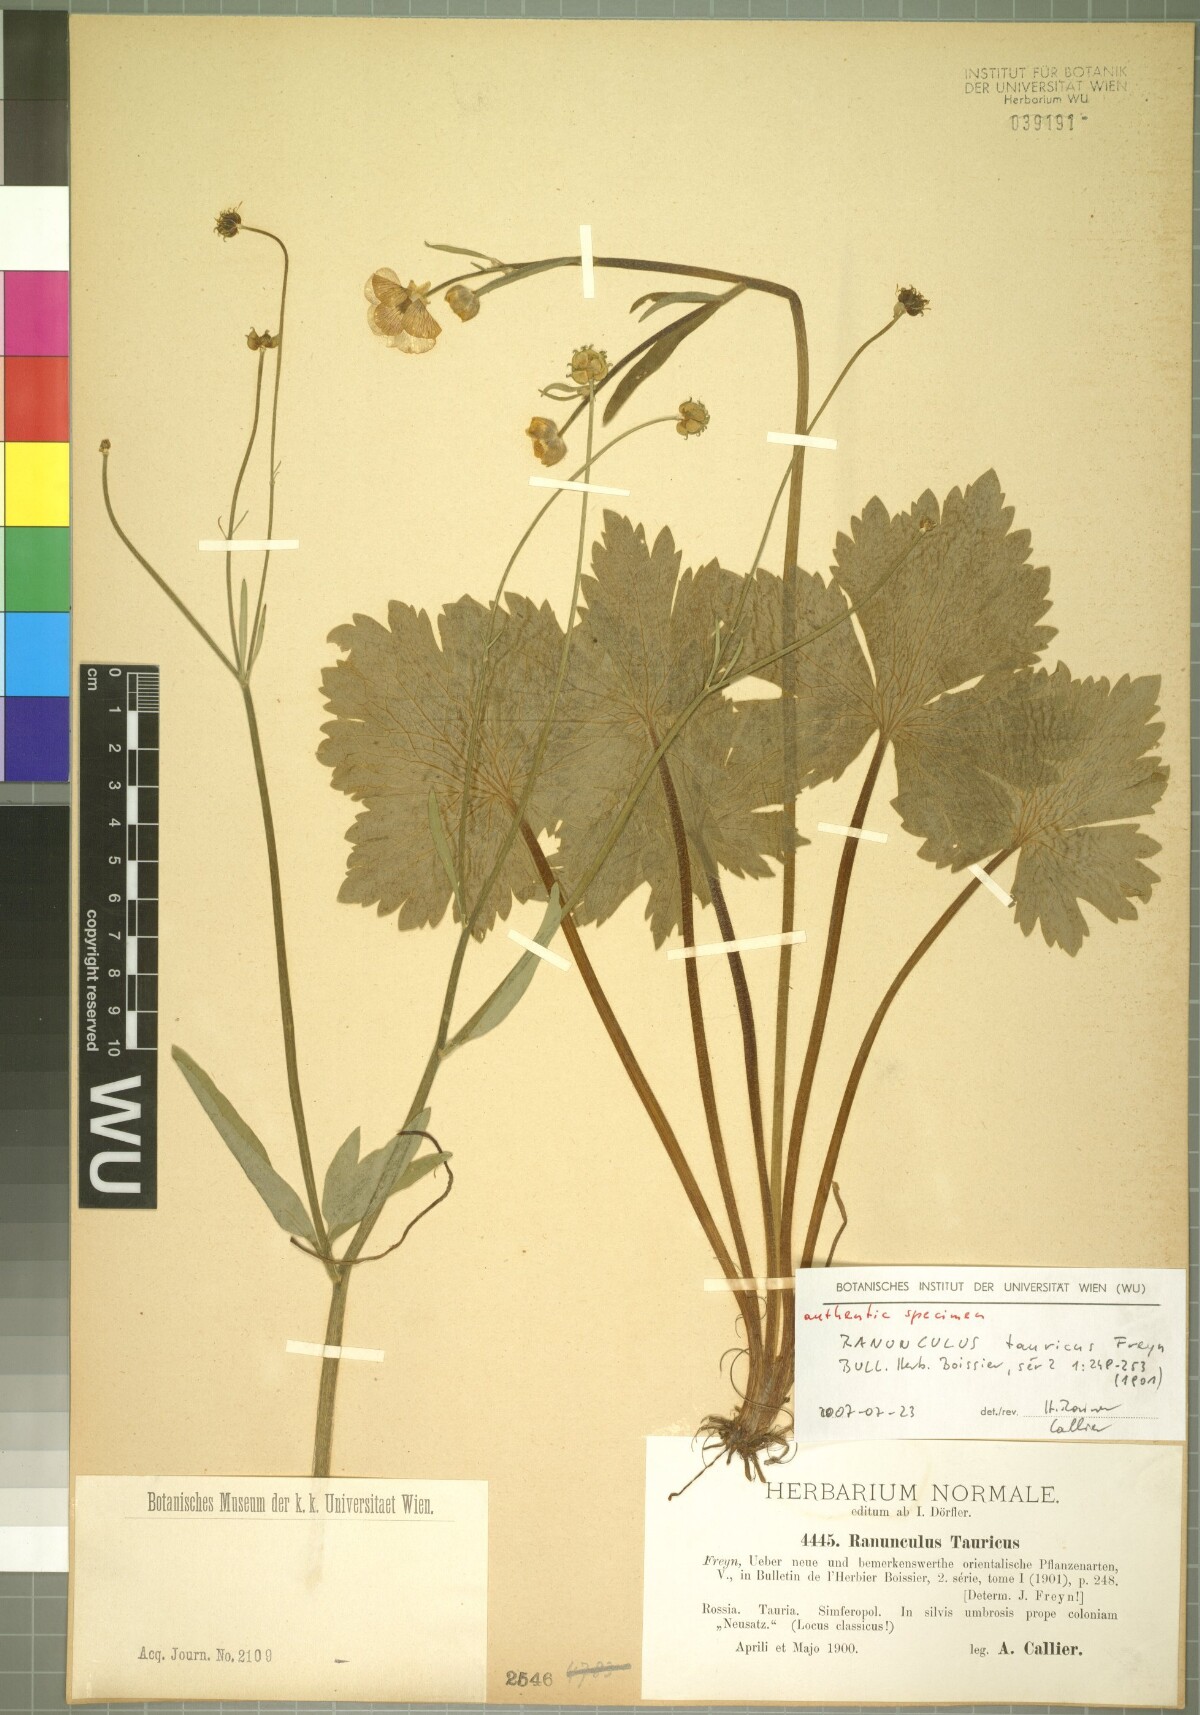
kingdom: Plantae
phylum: Tracheophyta
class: Magnoliopsida
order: Ranunculales
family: Ranunculaceae
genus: Ranunculus
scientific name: Ranunculus constantinopolitanus
